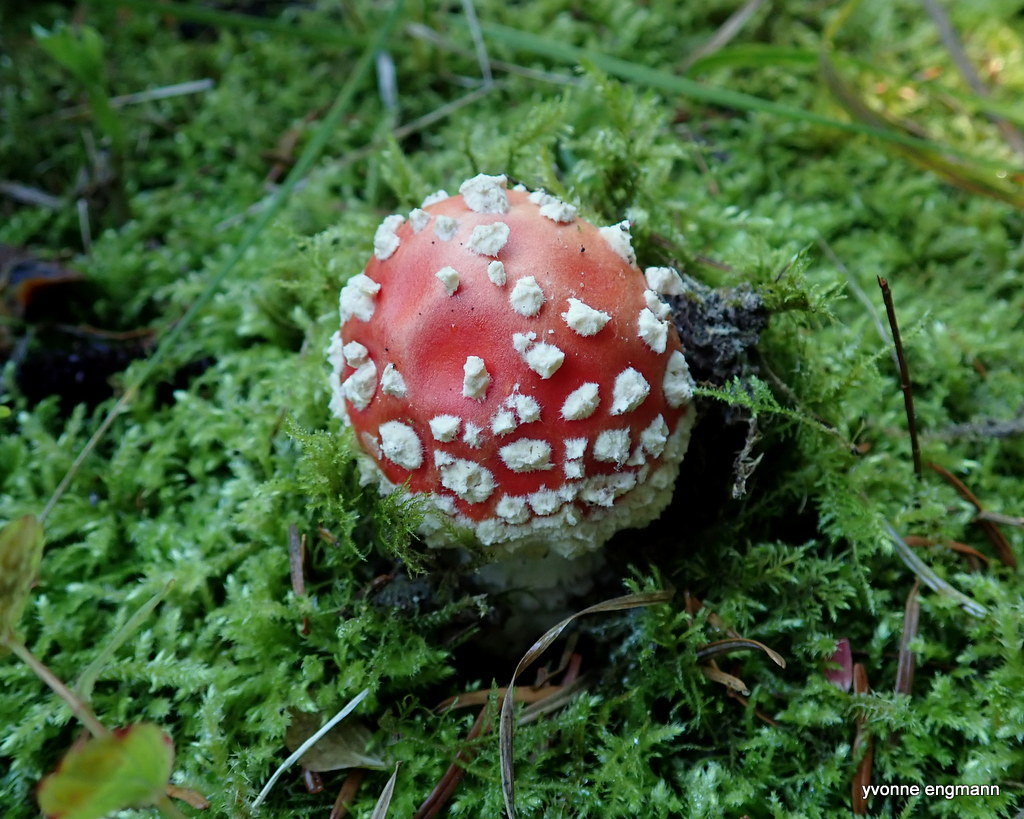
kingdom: Fungi
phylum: Basidiomycota
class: Agaricomycetes
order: Agaricales
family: Amanitaceae
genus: Amanita
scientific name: Amanita muscaria
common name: rød fluesvamp
